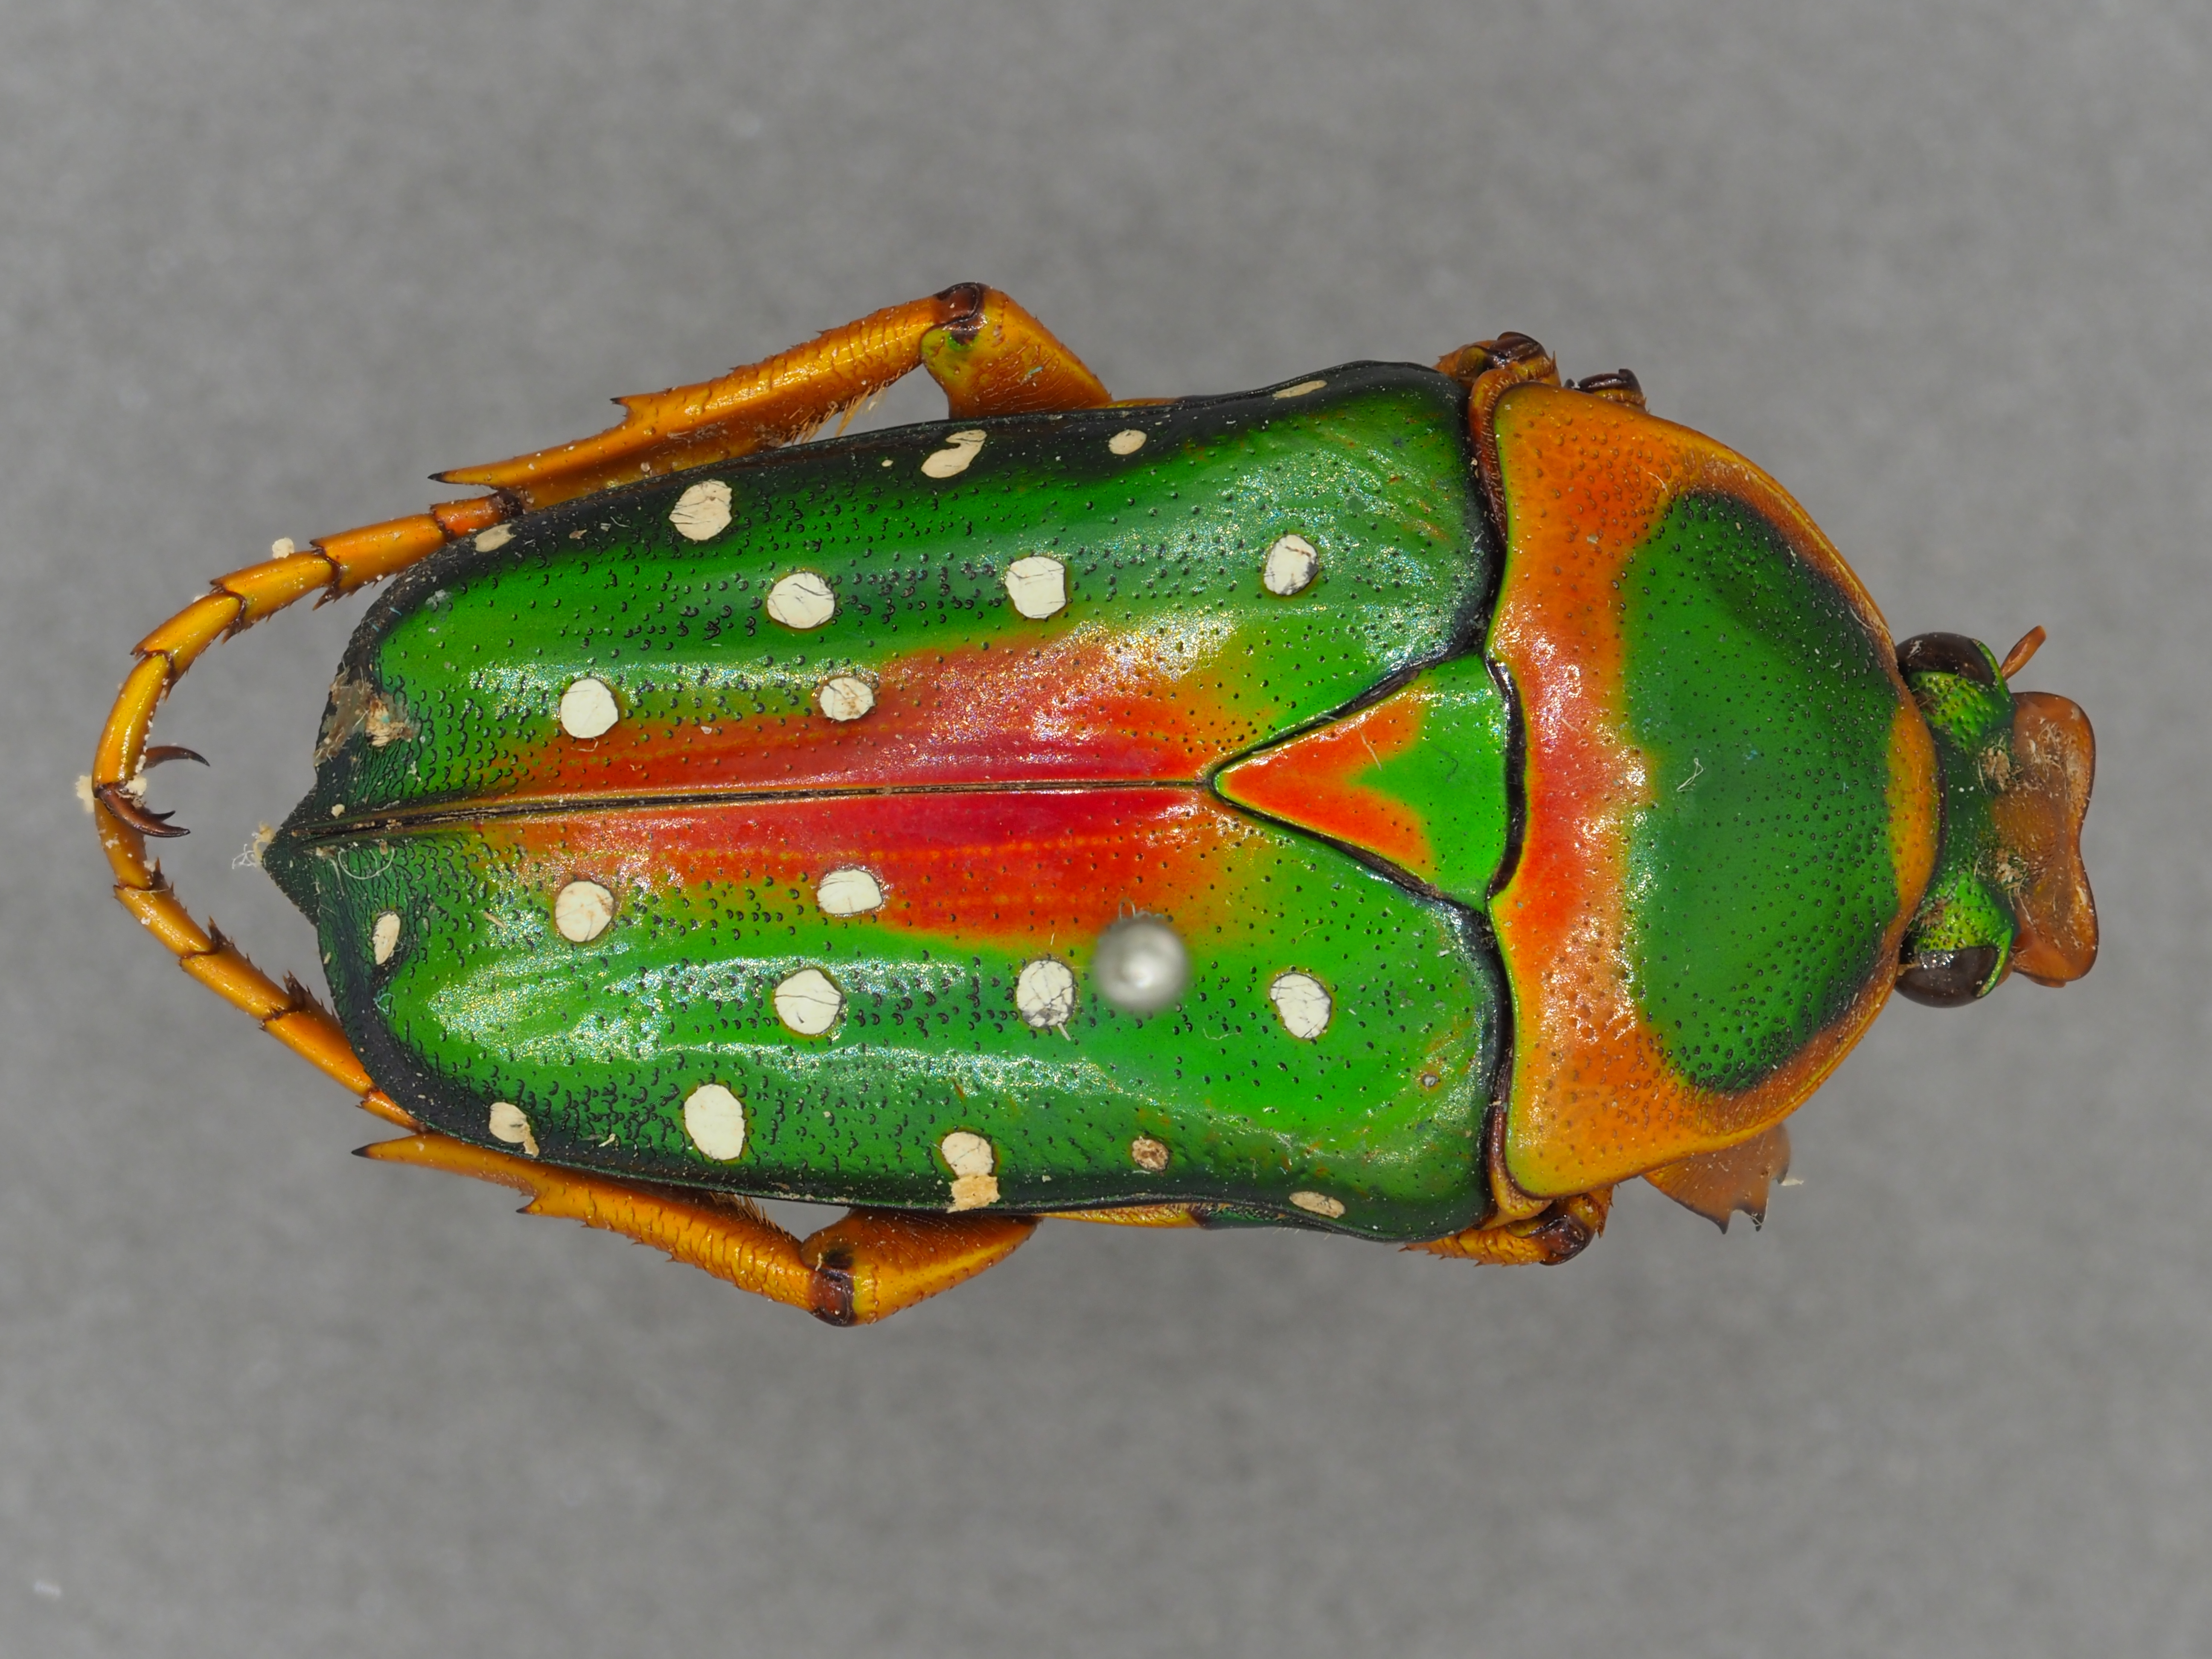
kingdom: Animalia
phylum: Arthropoda
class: Insecta
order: Coleoptera
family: Scarabaeidae
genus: Stephanorrhina
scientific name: Stephanorrhina guttata
